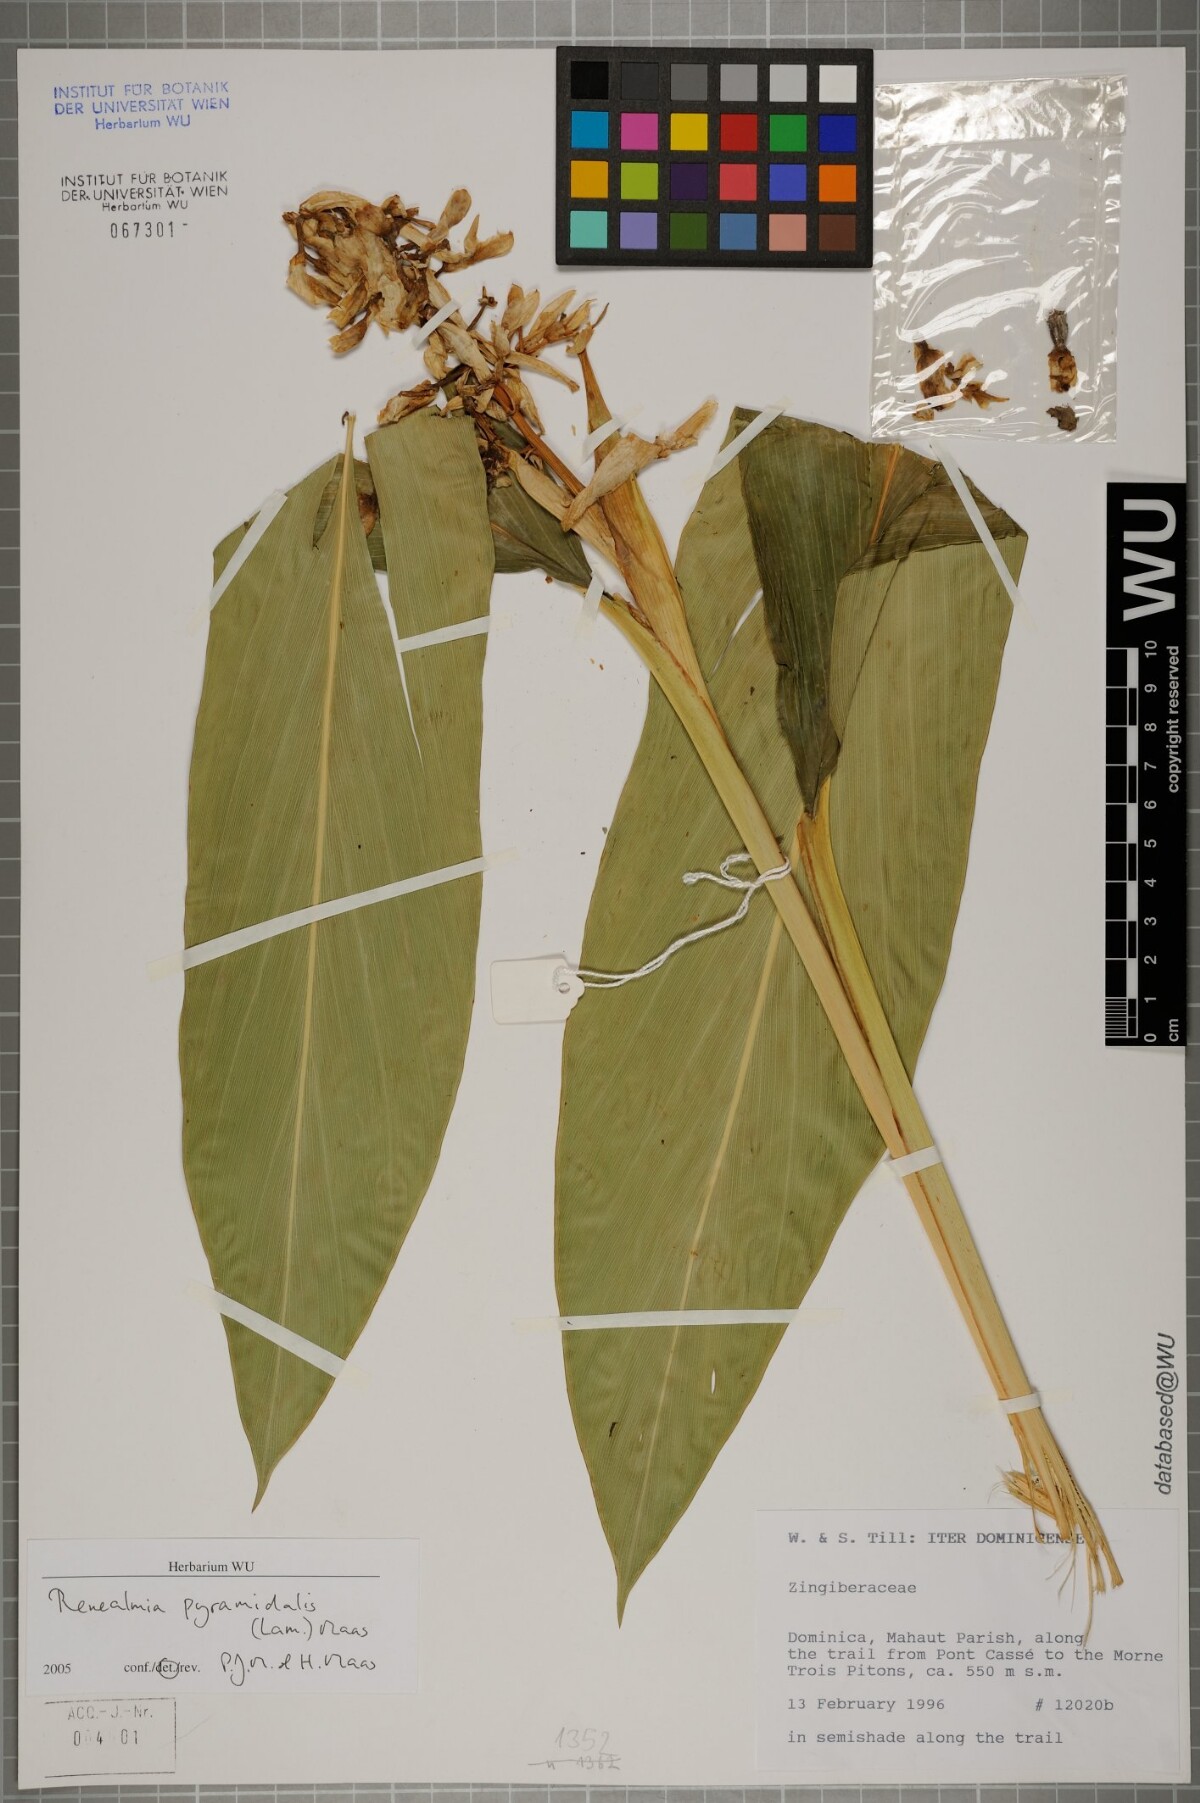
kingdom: Plantae
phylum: Tracheophyta
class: Liliopsida
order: Zingiberales
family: Zingiberaceae
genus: Renealmia
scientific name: Renealmia pyramidalis
